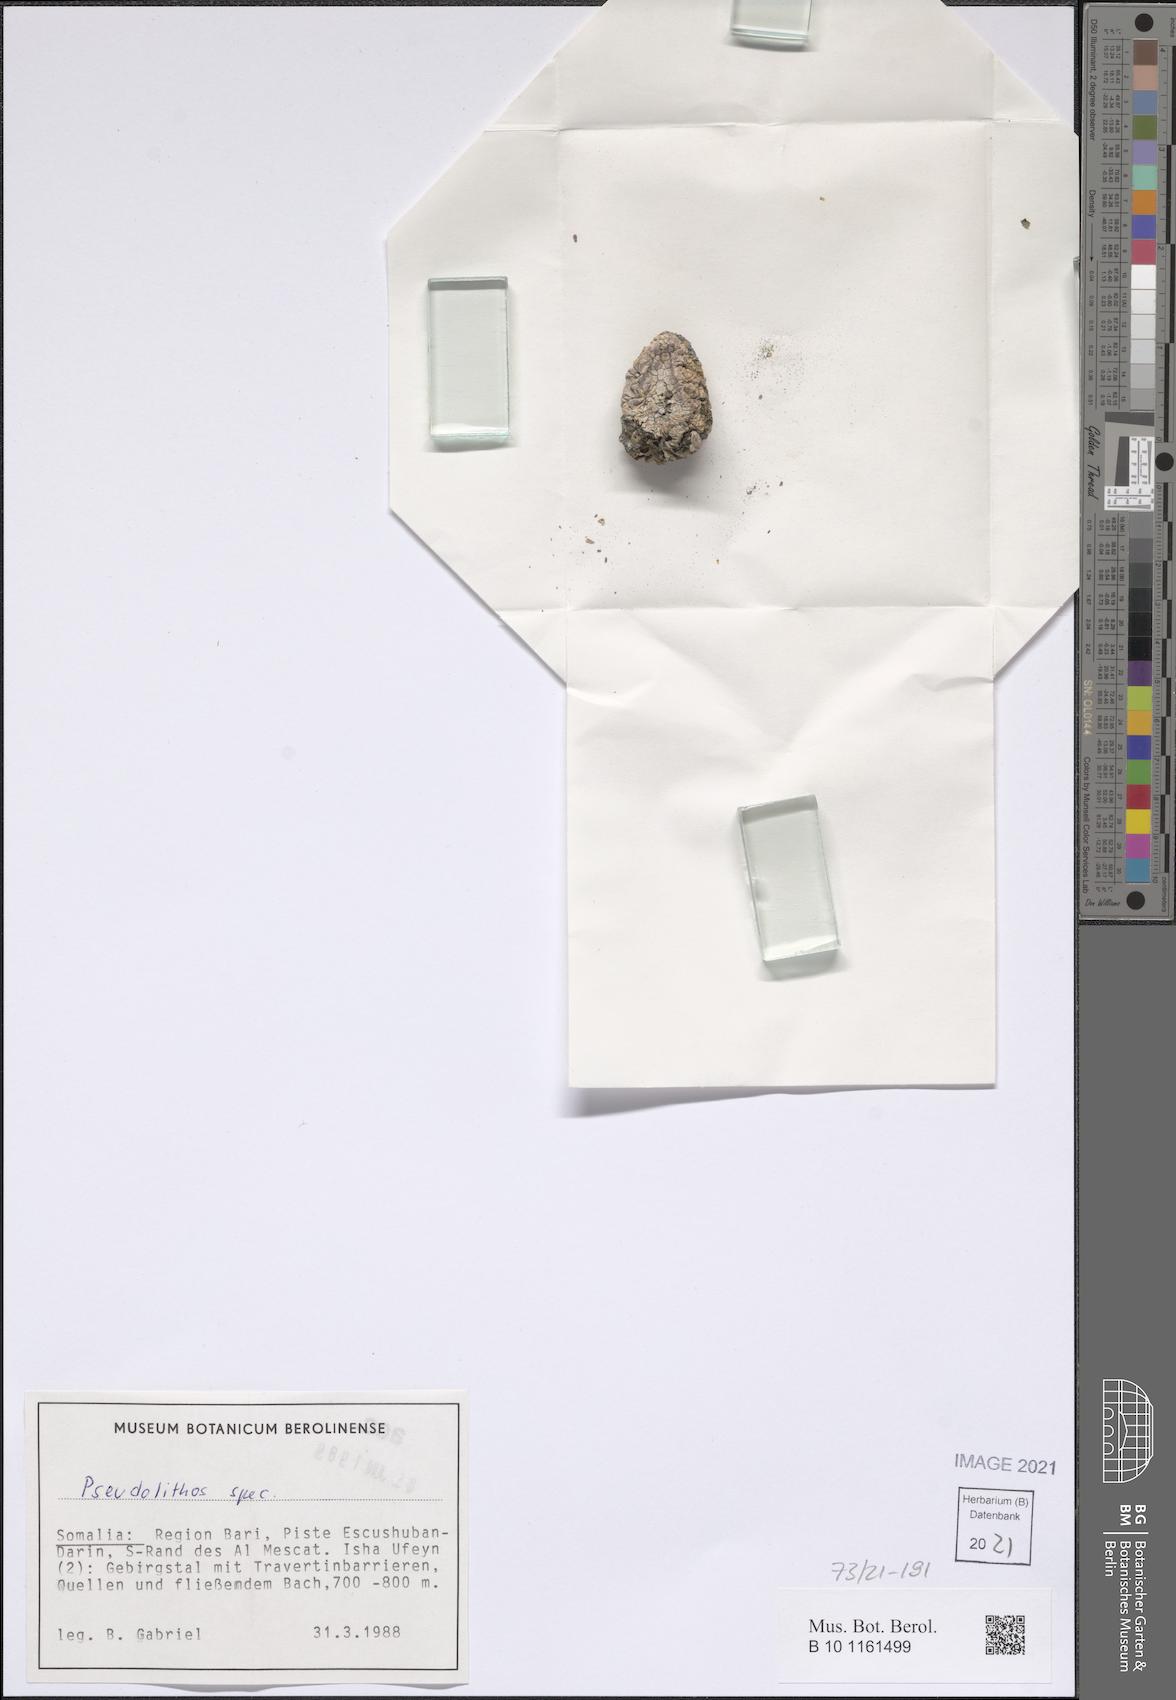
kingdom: Plantae
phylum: Tracheophyta
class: Magnoliopsida
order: Gentianales
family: Apocynaceae
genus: Pseudolithos
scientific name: Pseudolithos
